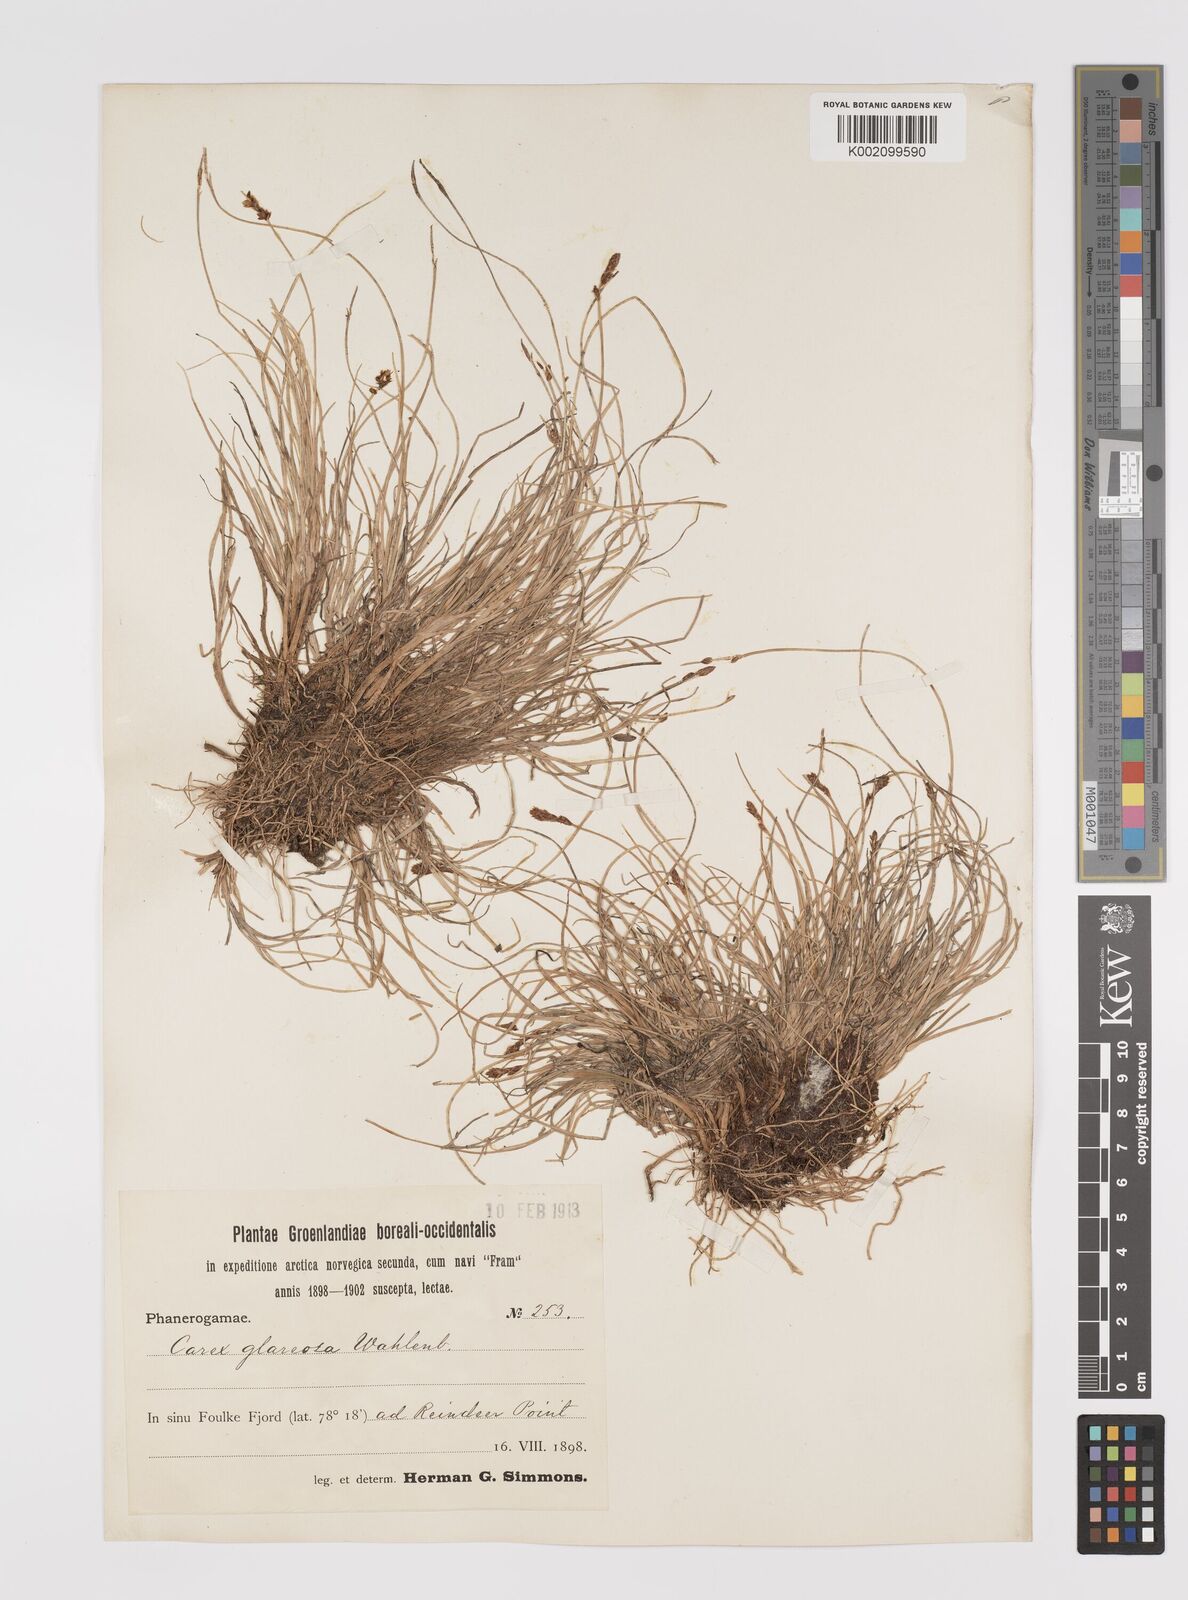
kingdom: Plantae
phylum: Tracheophyta
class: Liliopsida
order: Poales
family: Cyperaceae
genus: Carex
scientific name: Carex glareosa
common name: Clustered sedge
